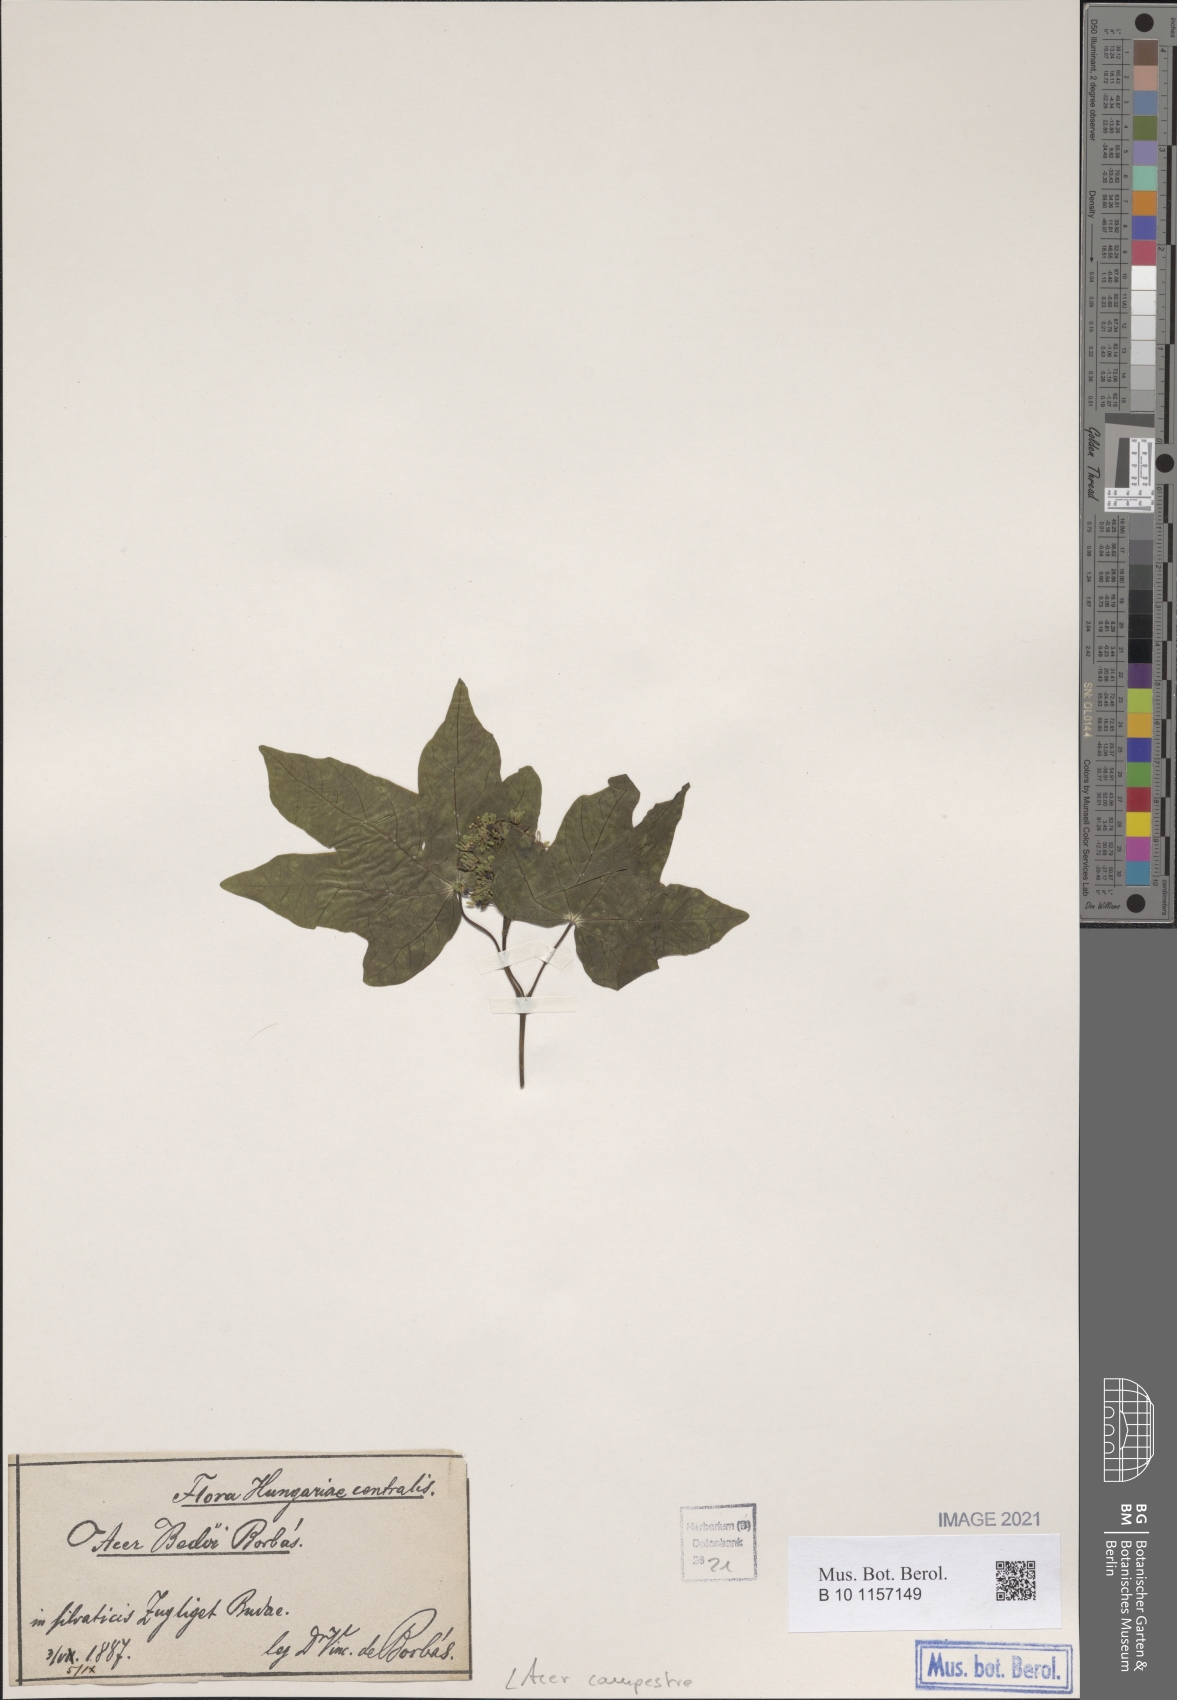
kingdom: Plantae
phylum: Tracheophyta
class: Magnoliopsida
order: Sapindales
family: Sapindaceae
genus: Acer
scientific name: Acer campestre
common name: Field maple
